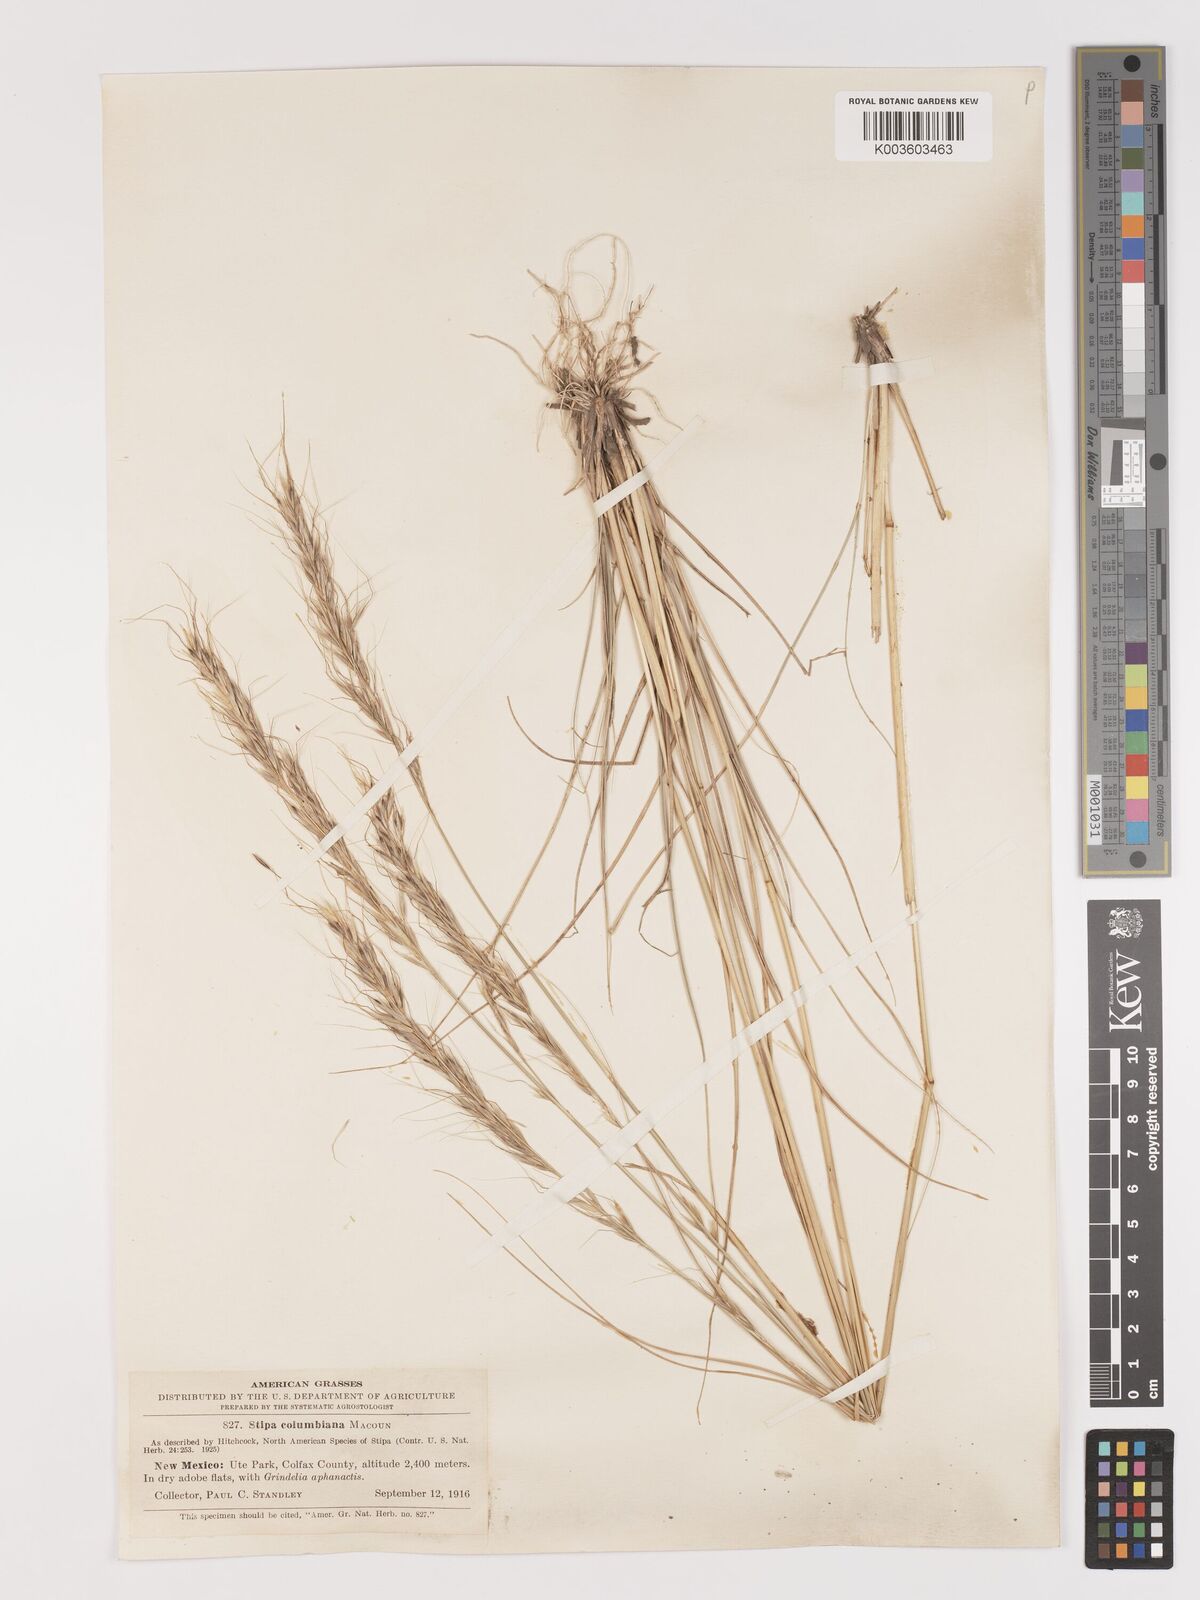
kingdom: Plantae
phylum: Tracheophyta
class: Liliopsida
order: Poales
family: Poaceae
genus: Eriocoma
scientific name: Eriocoma nelsonii
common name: Nelson's needlegrass
